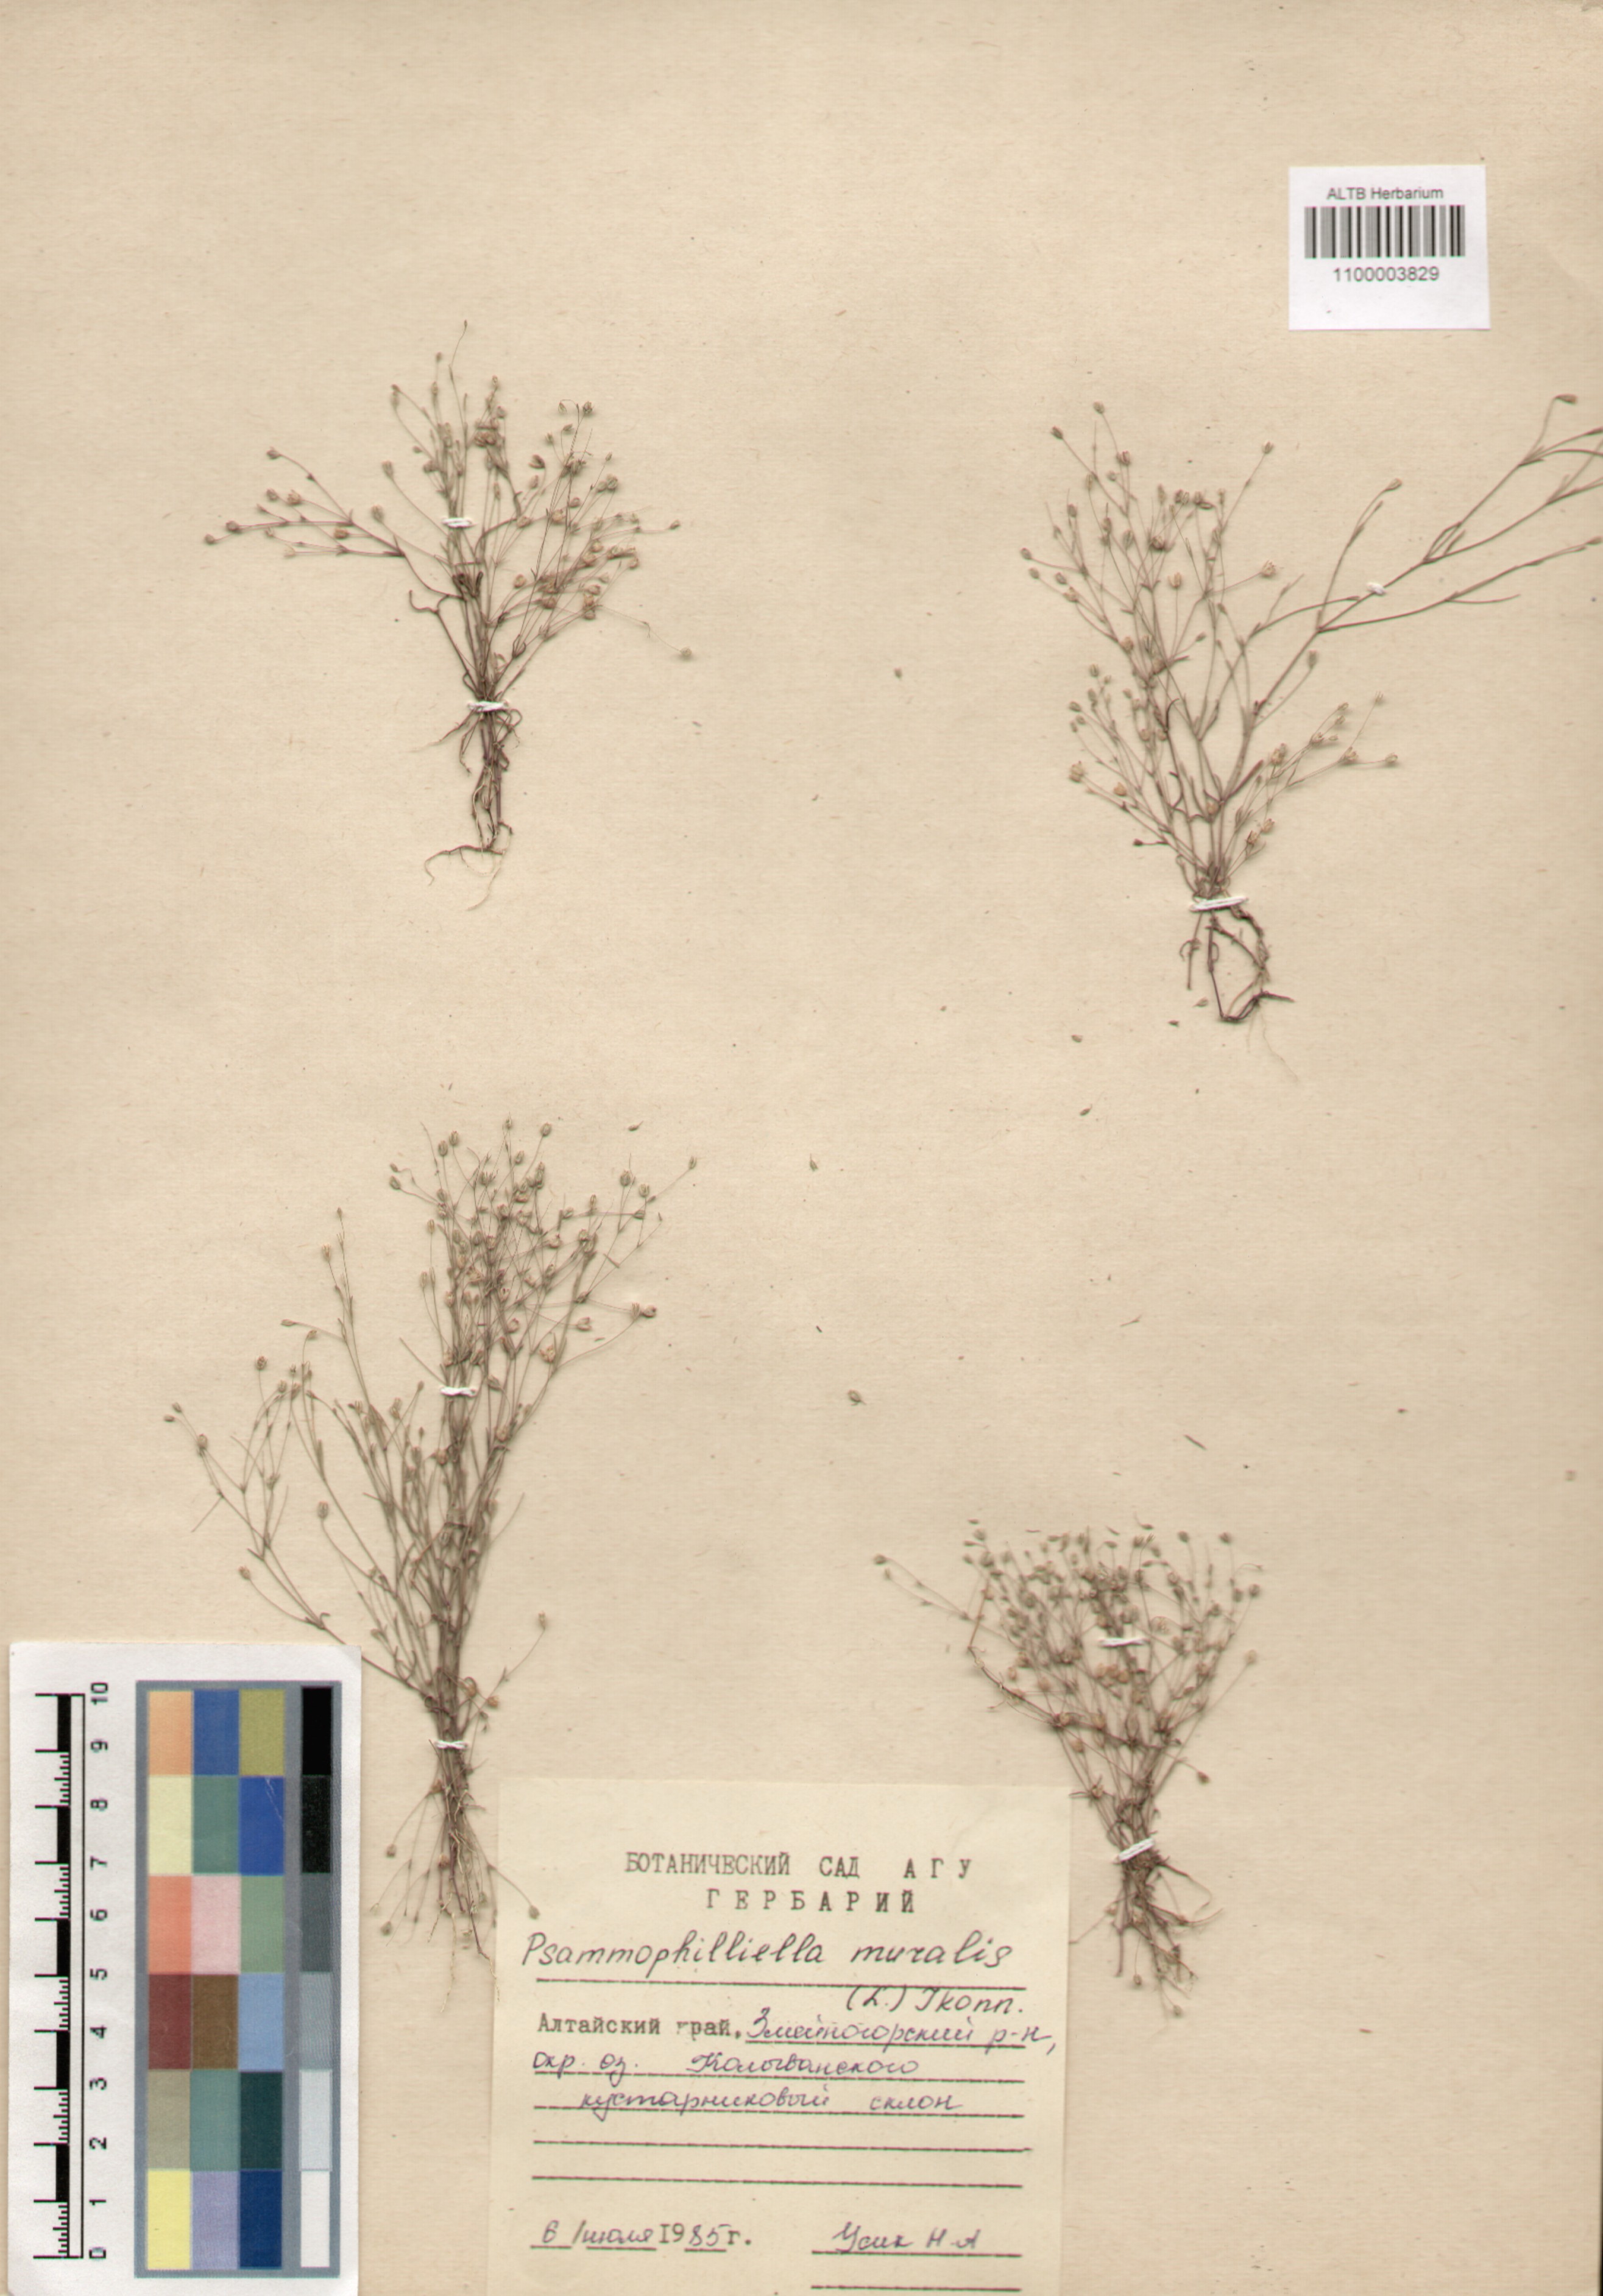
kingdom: Plantae
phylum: Tracheophyta
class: Magnoliopsida
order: Caryophyllales
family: Caryophyllaceae
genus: Psammophiliella
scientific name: Psammophiliella muralis
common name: Cushion baby's-breath
